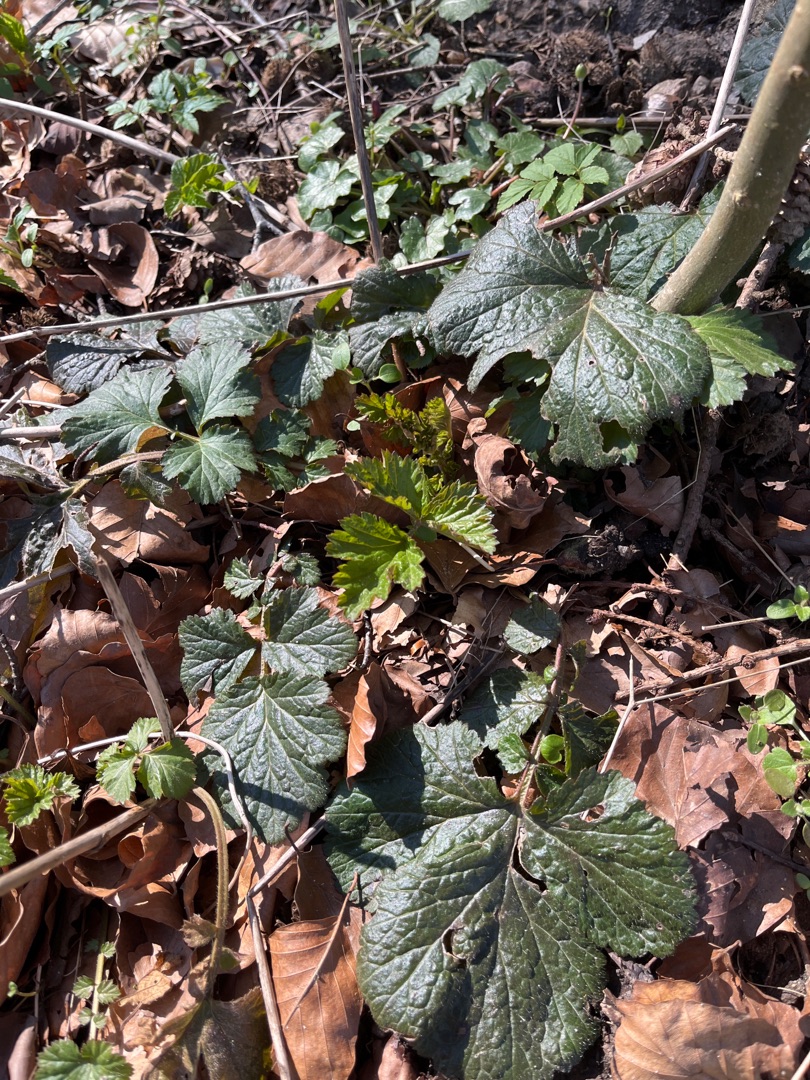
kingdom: Plantae
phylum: Tracheophyta
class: Magnoliopsida
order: Rosales
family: Rosaceae
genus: Geum
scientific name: Geum urbanum
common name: Feber-nellikerod
